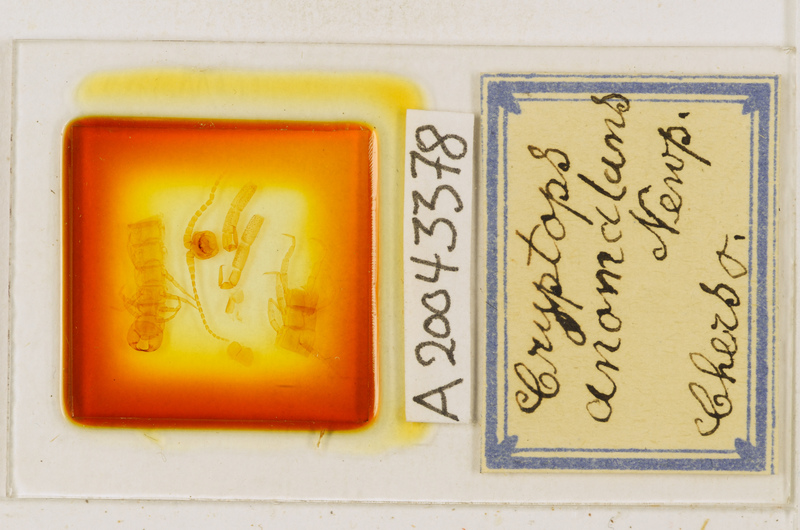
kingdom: Animalia
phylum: Arthropoda
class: Chilopoda
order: Scolopendromorpha
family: Cryptopidae
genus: Cryptops
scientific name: Cryptops anomalans
